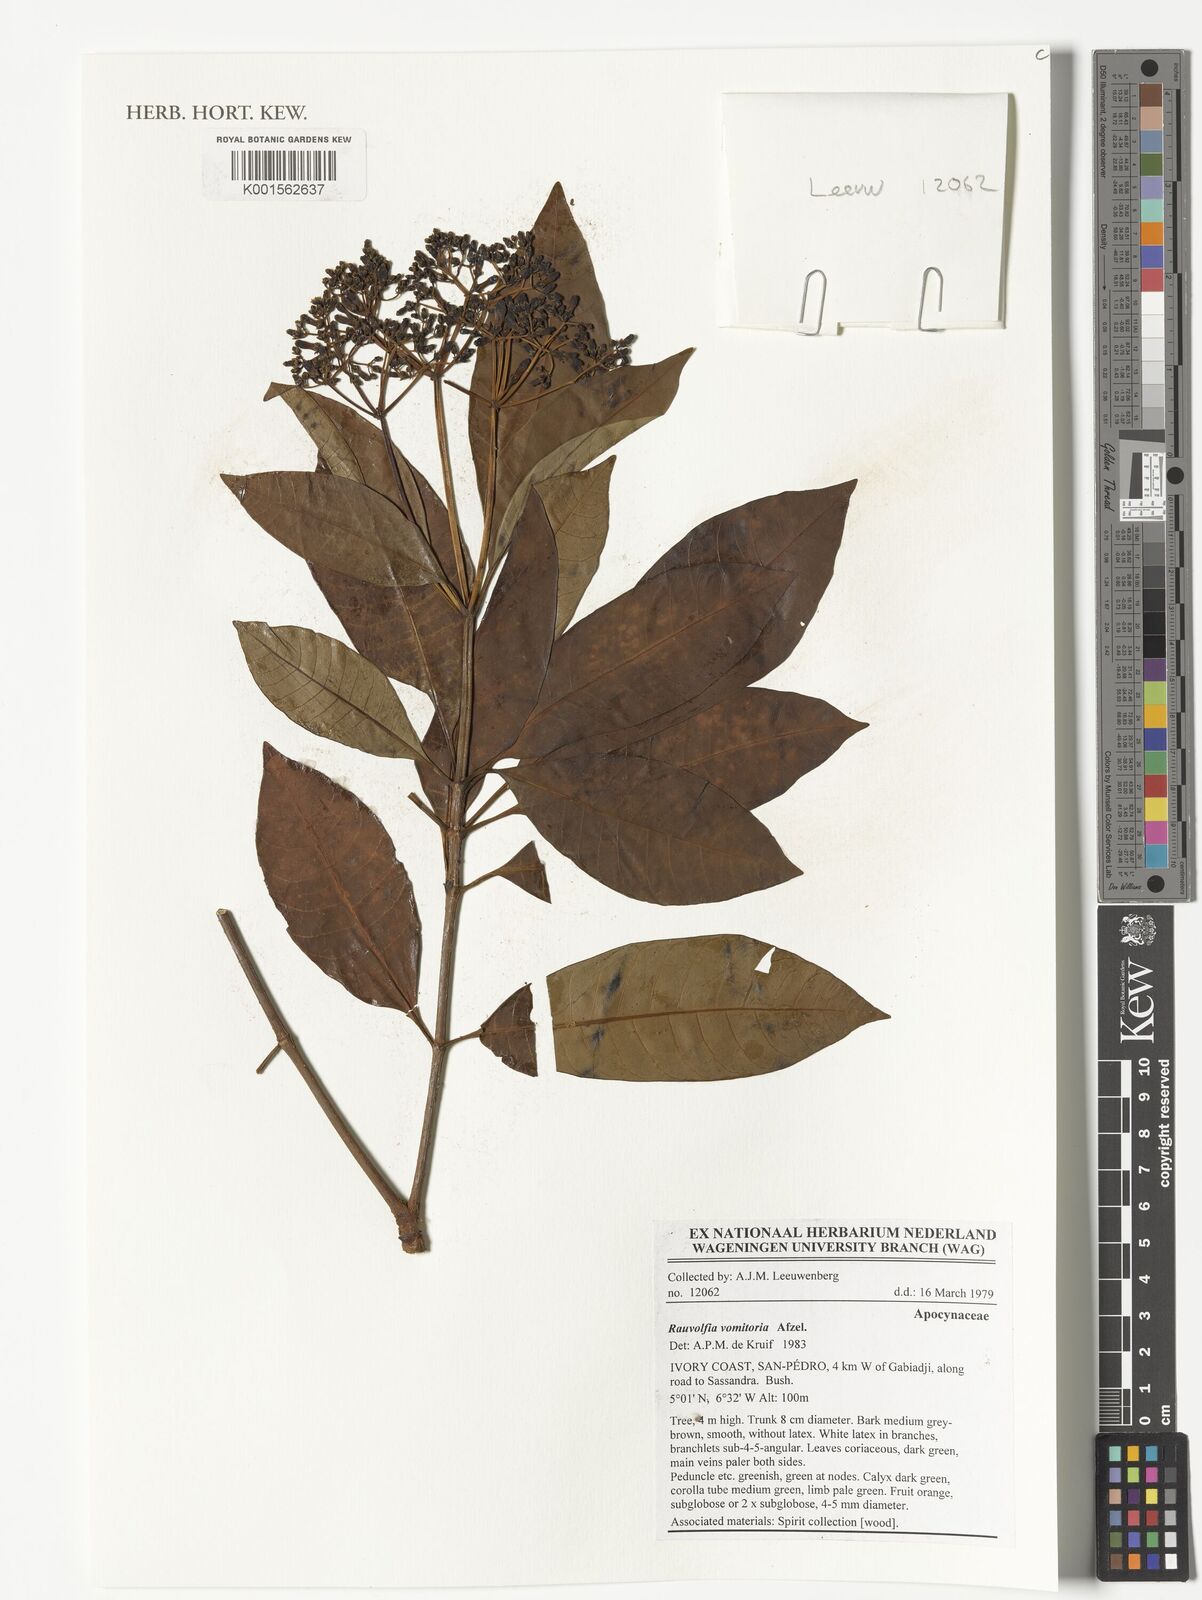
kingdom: Plantae
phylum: Tracheophyta
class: Magnoliopsida
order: Gentianales
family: Apocynaceae
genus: Rauvolfia
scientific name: Rauvolfia
